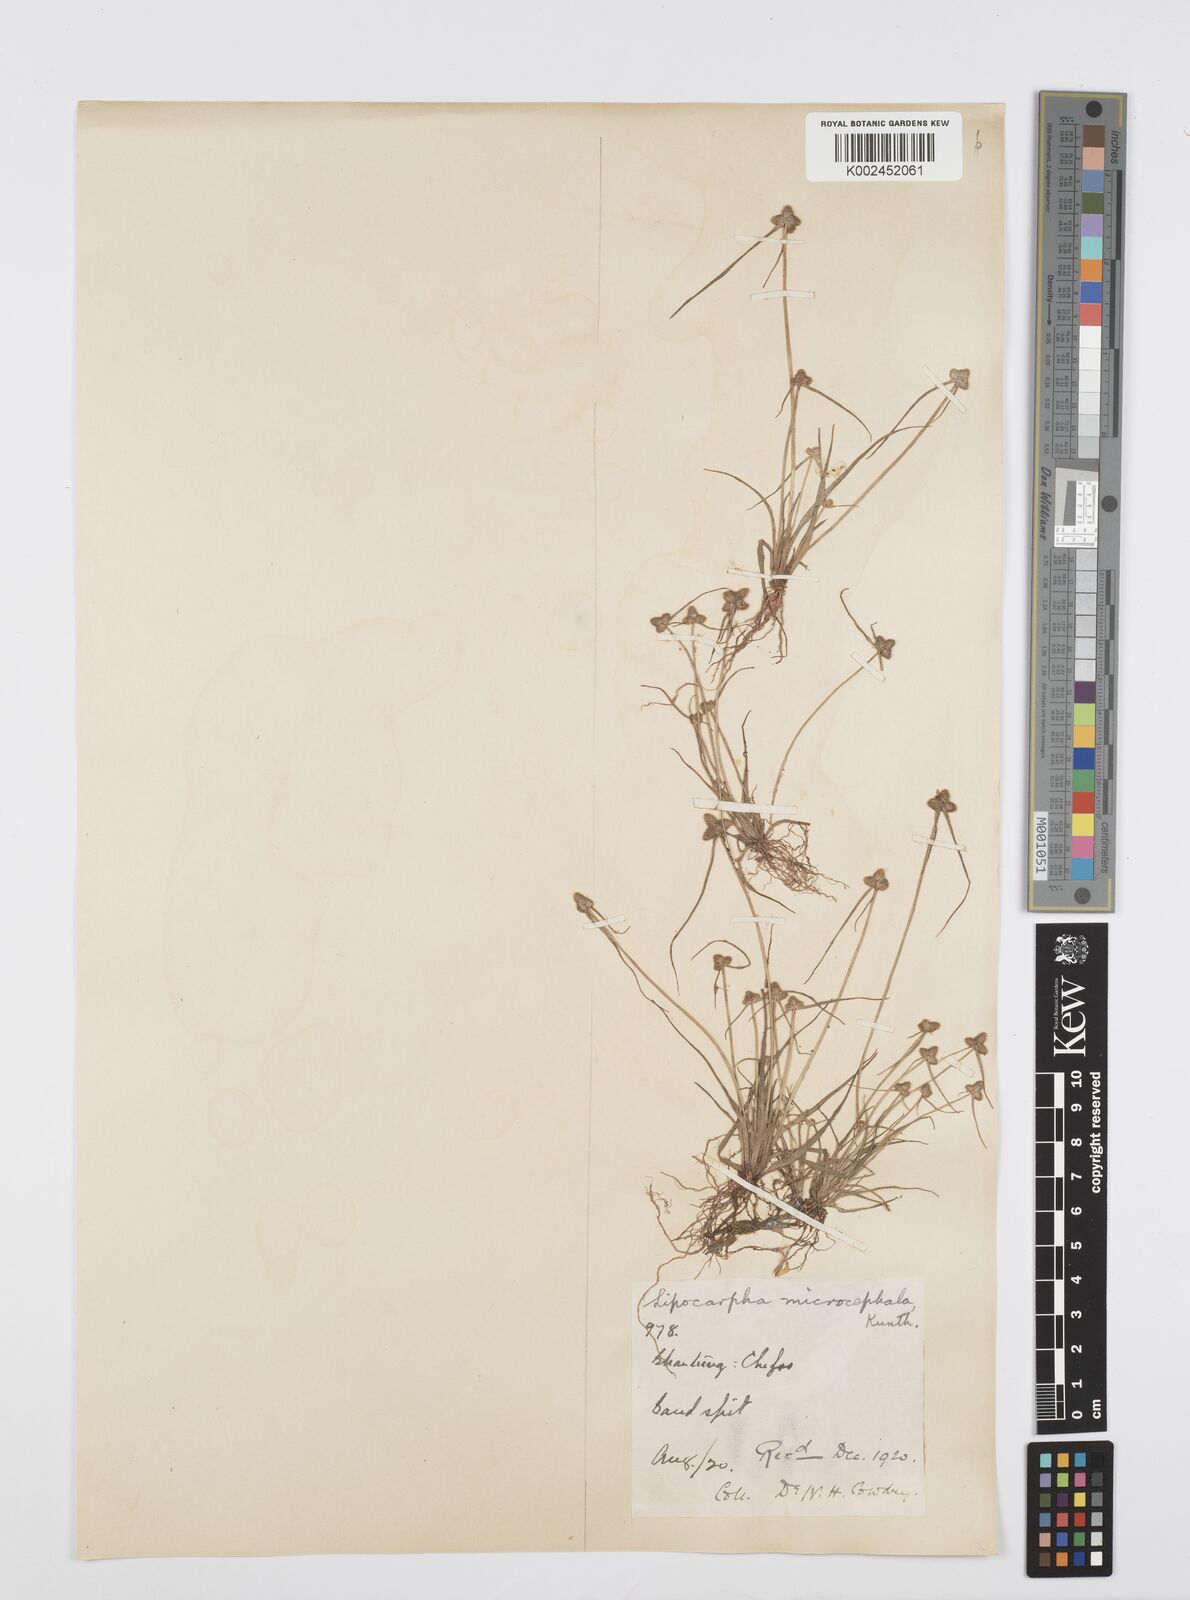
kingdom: Plantae
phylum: Tracheophyta
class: Liliopsida
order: Poales
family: Cyperaceae
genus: Cyperus
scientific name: Cyperus microcephalus
